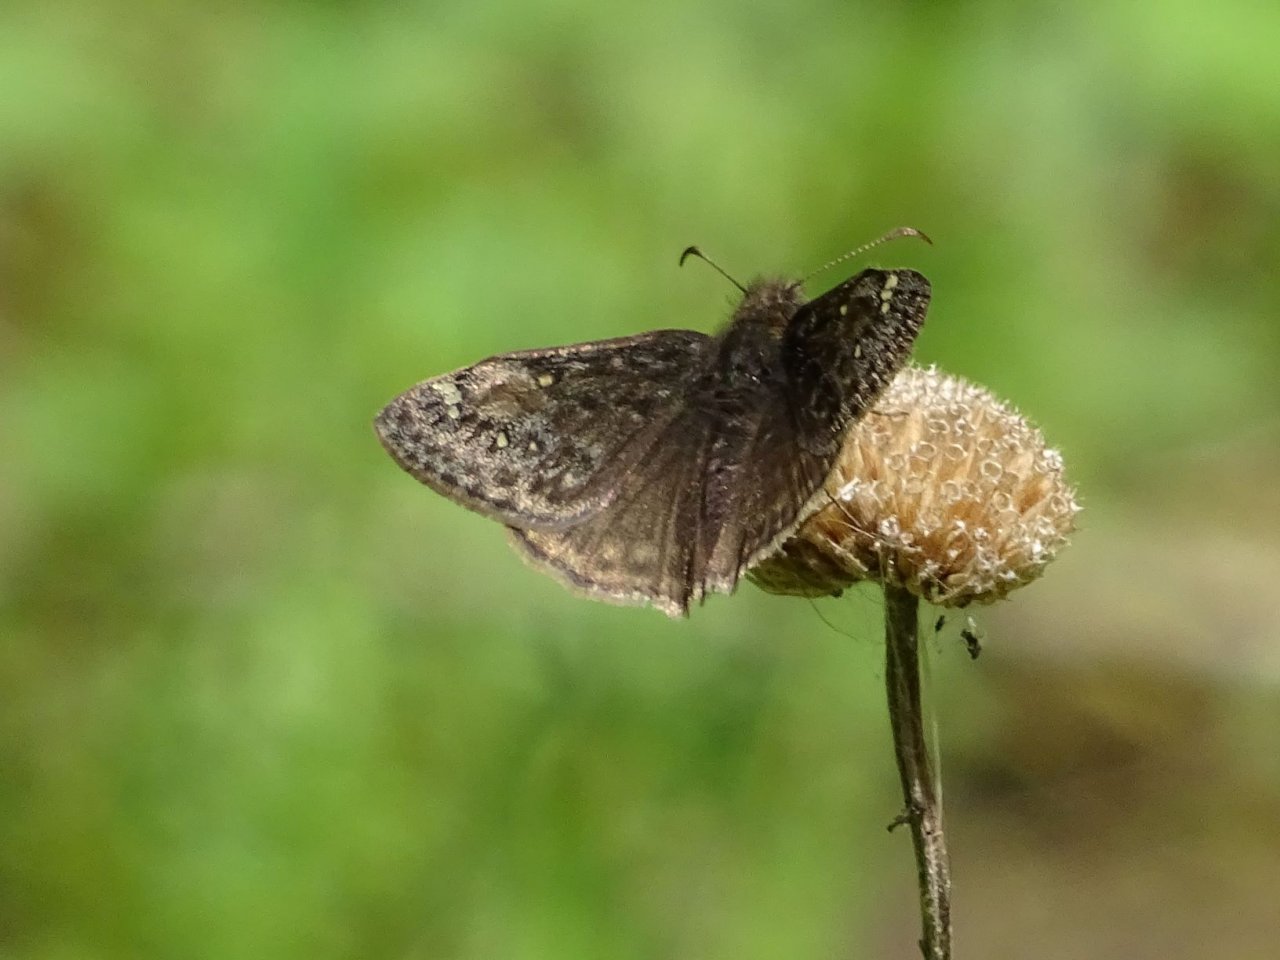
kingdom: Animalia
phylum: Arthropoda
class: Insecta
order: Lepidoptera
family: Hesperiidae
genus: Gesta
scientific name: Gesta
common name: Juvenal's Duskywing
